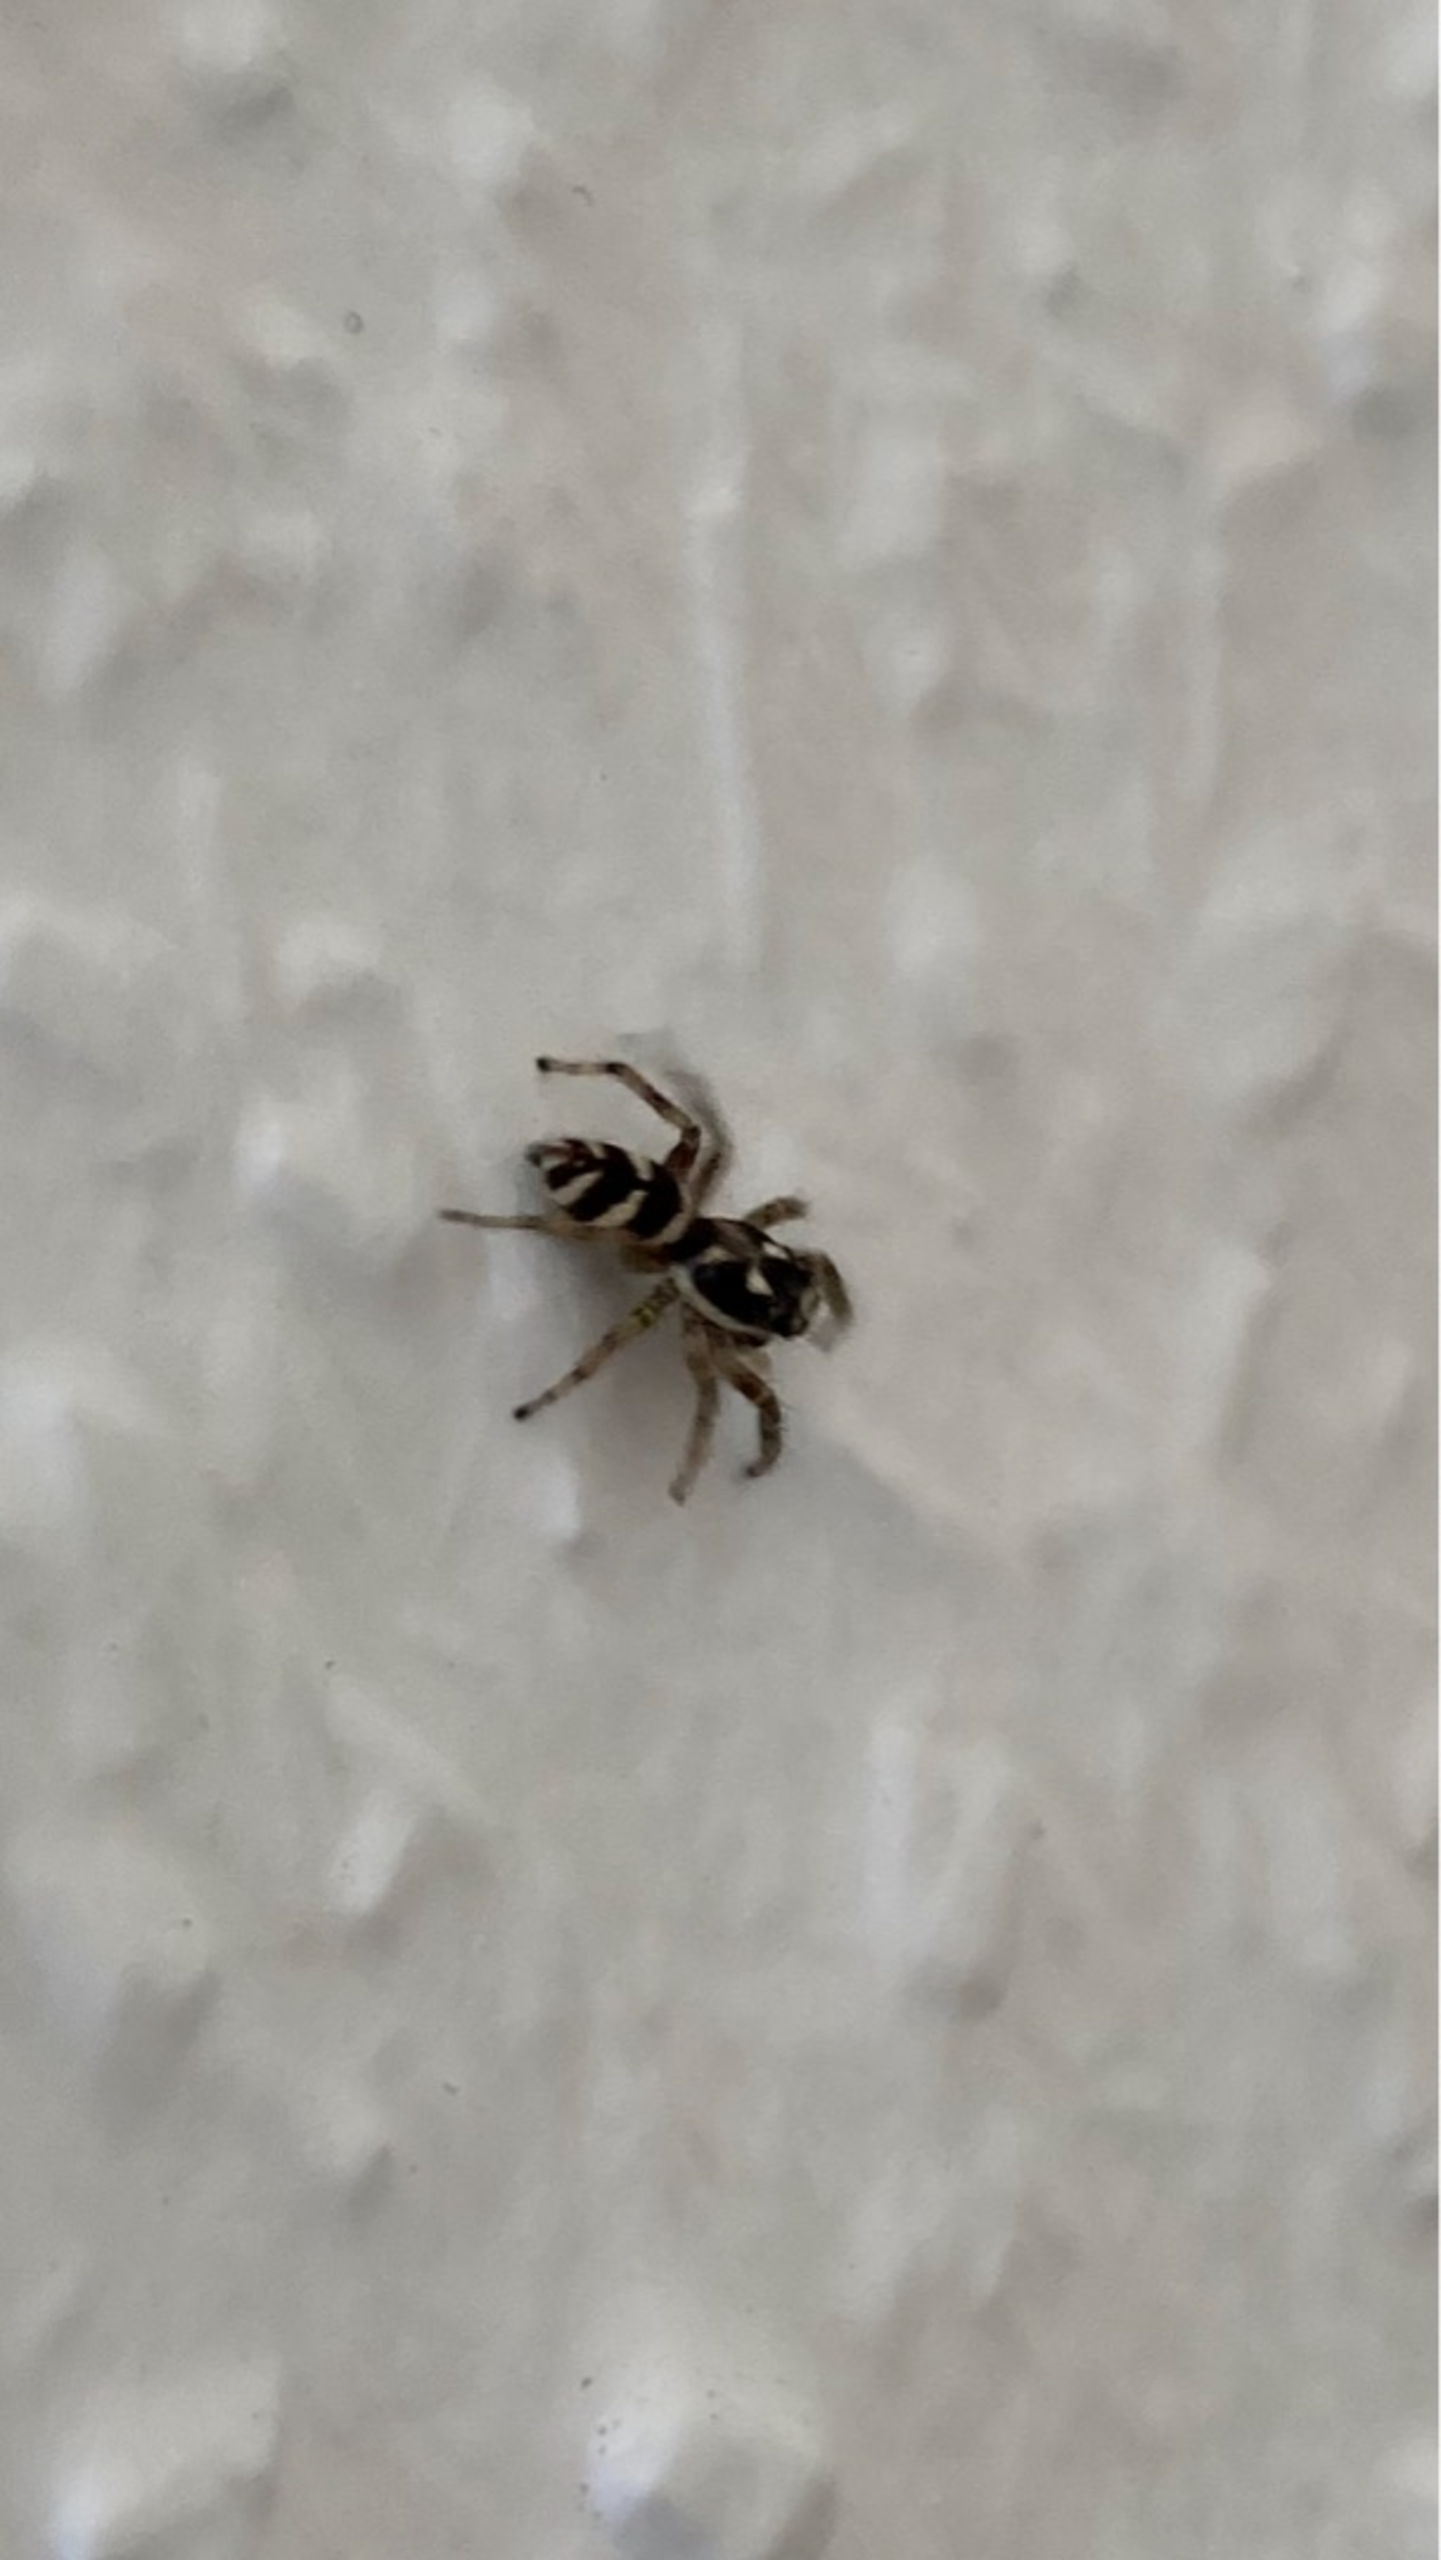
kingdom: Animalia
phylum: Arthropoda
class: Arachnida
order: Araneae
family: Salticidae
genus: Salticus
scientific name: Salticus scenicus
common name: Almindelig zebraedderkop
